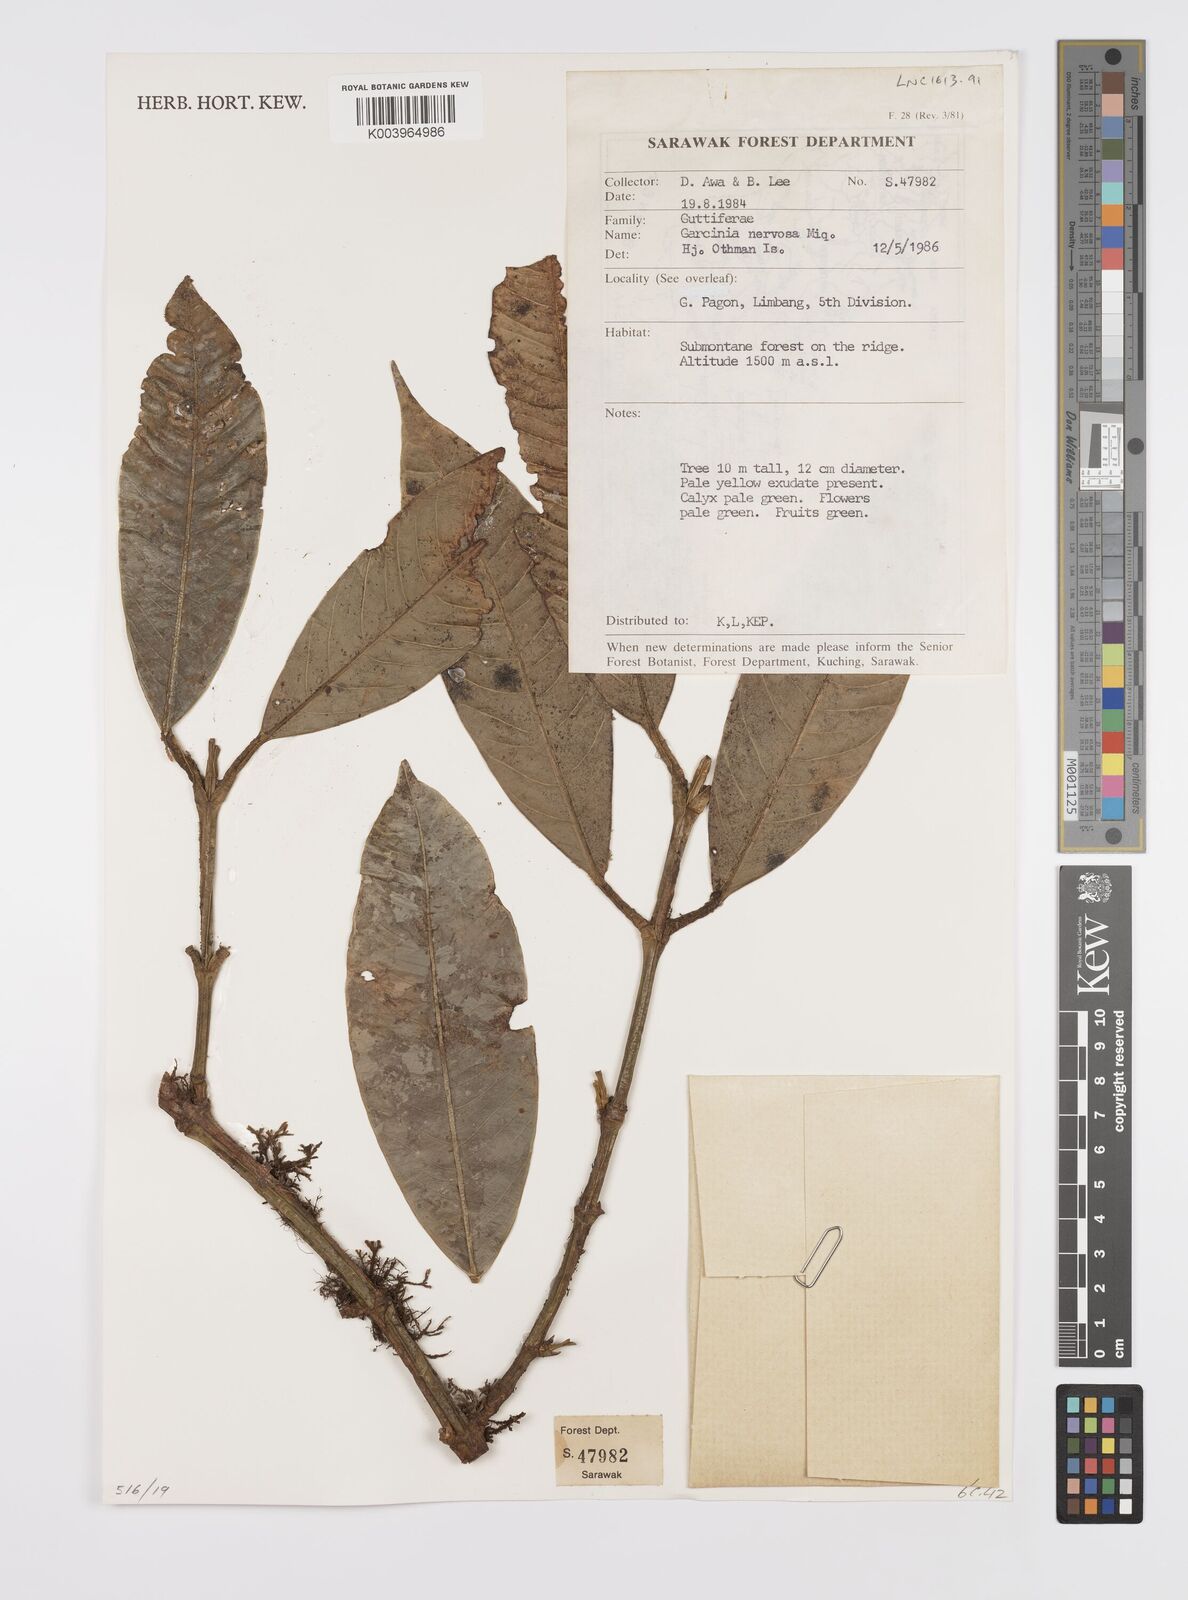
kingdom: Plantae
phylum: Tracheophyta
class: Magnoliopsida
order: Malpighiales
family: Clusiaceae
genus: Garcinia
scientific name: Garcinia nervosa
